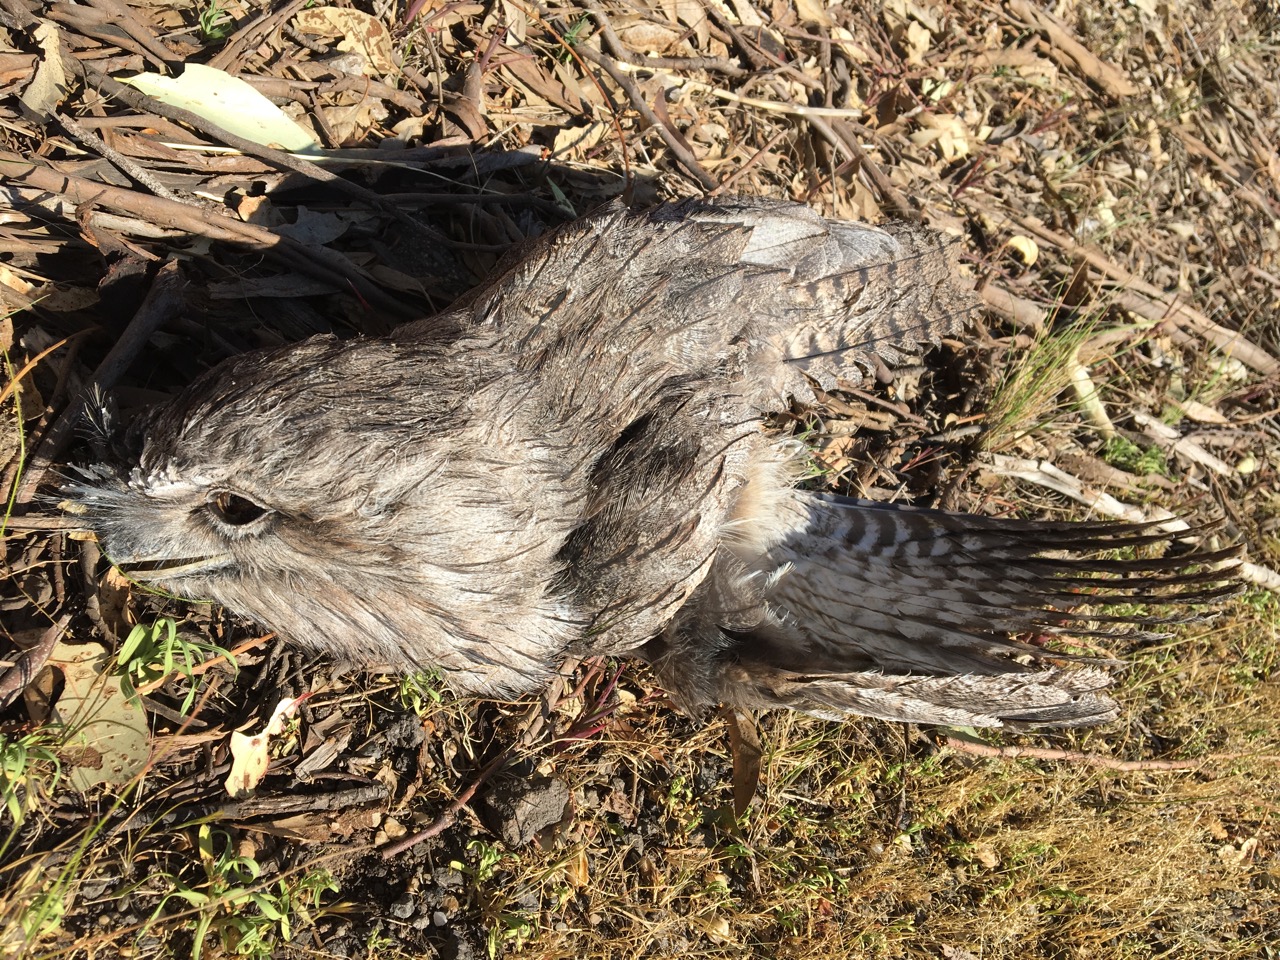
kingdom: Animalia
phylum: Chordata
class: Aves
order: Caprimulgiformes
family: Podargidae
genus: Podargus
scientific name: Podargus strigoides
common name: Tawny frogmouth
